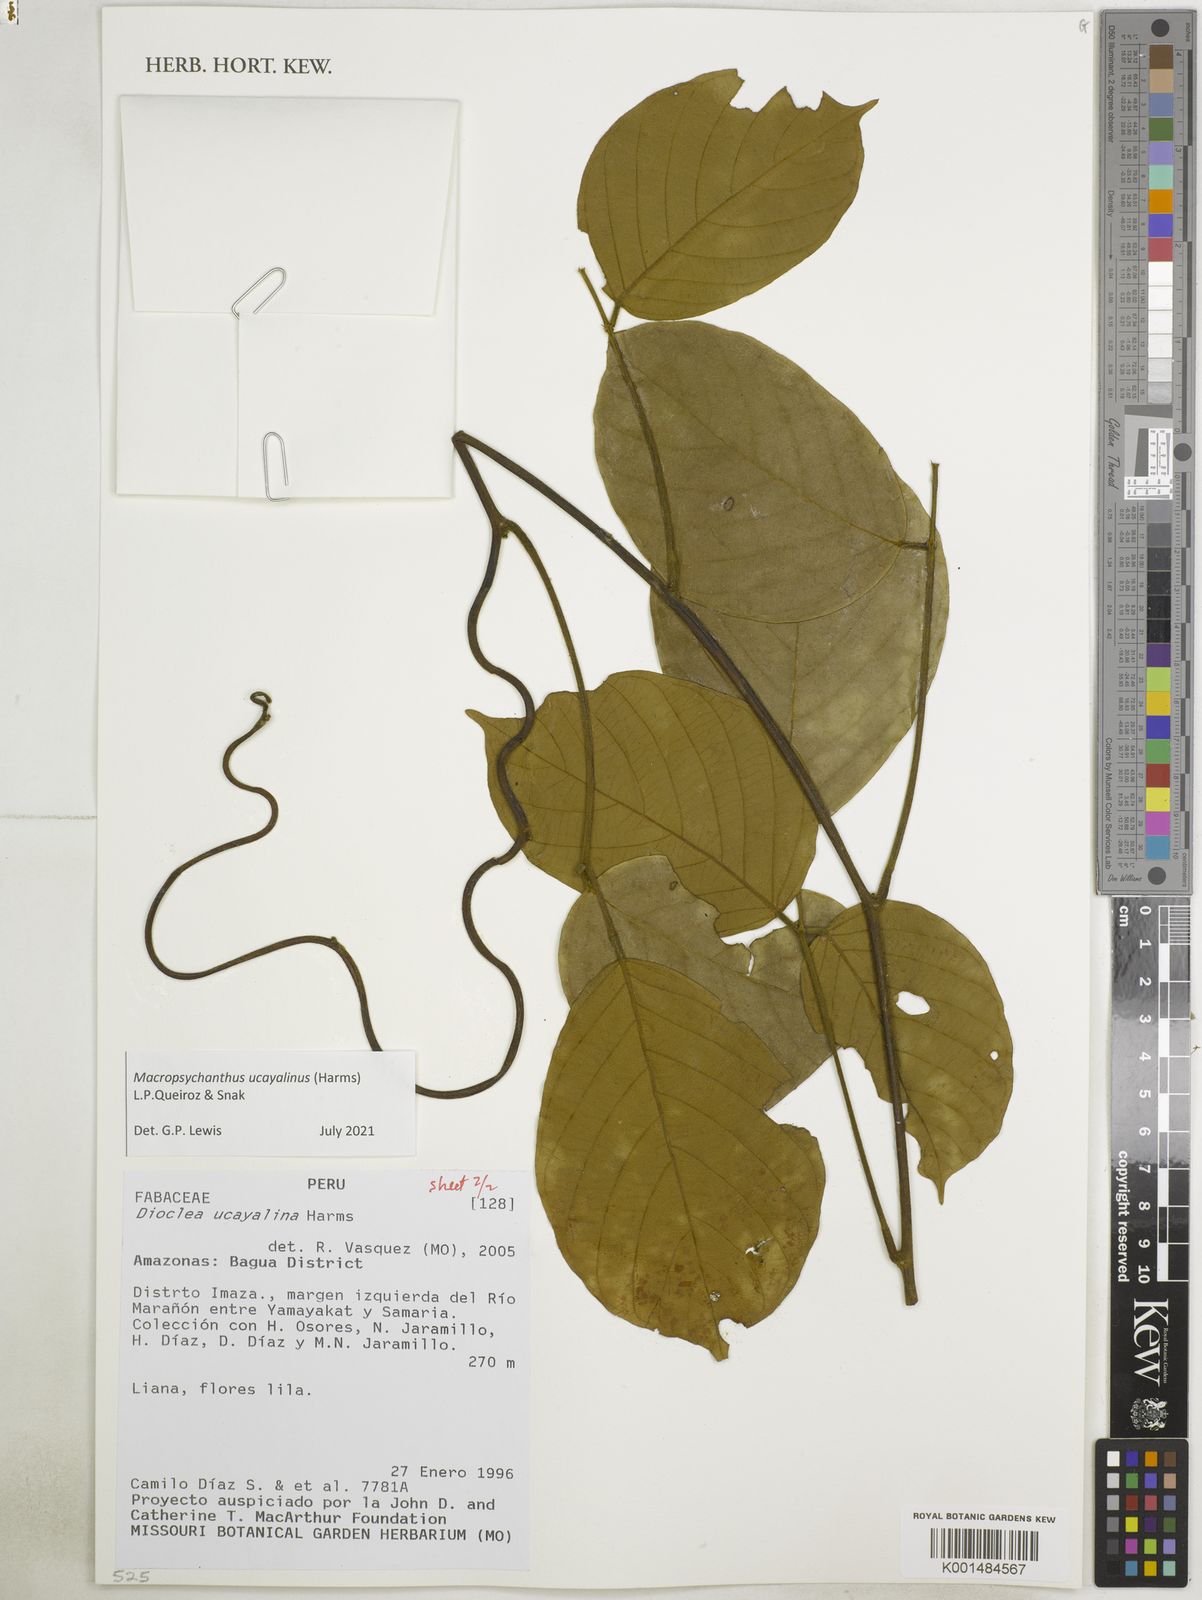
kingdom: Plantae
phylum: Tracheophyta
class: Magnoliopsida
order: Fabales
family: Fabaceae
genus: Macropsychanthus
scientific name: Macropsychanthus
